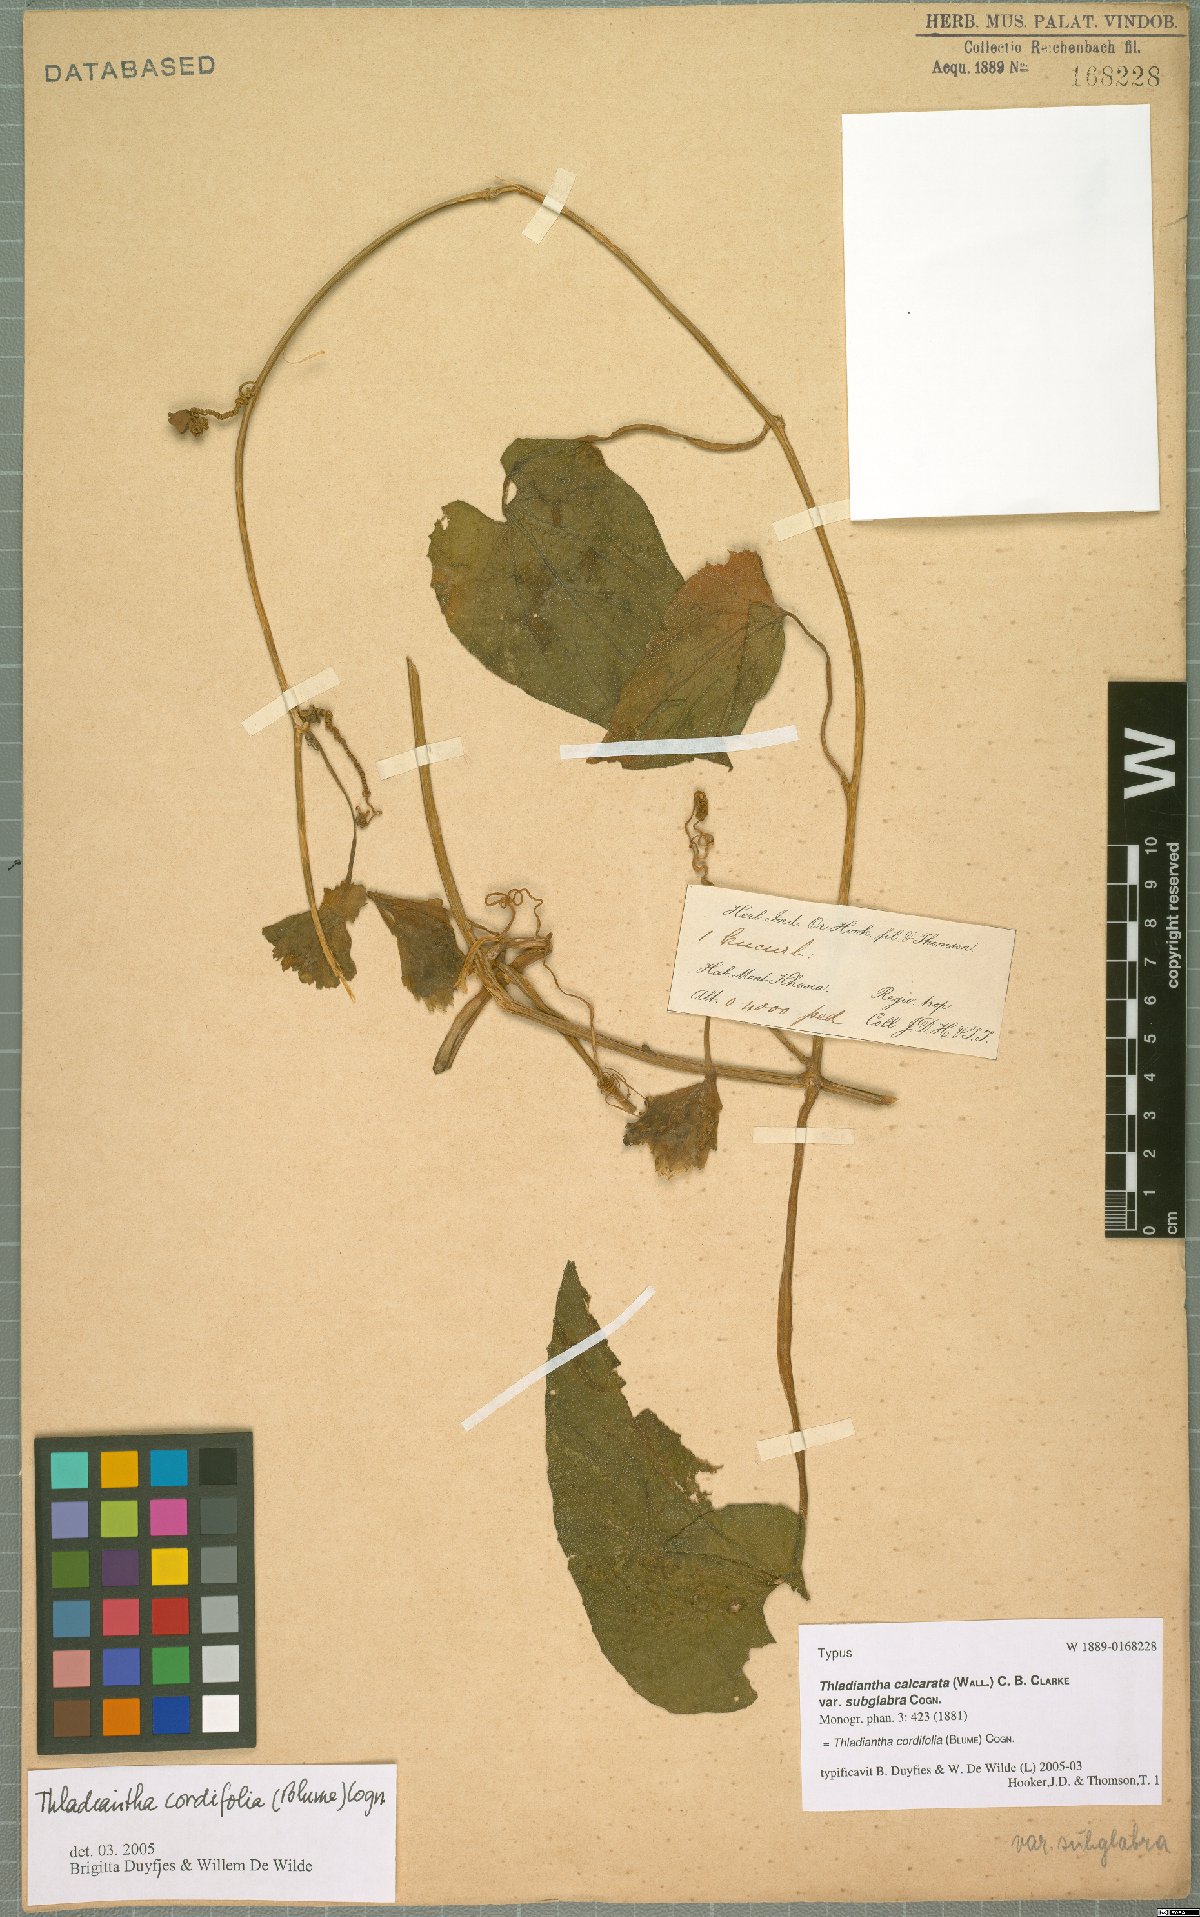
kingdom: Plantae
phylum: Tracheophyta
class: Magnoliopsida
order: Cucurbitales
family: Cucurbitaceae
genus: Thladiantha
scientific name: Thladiantha cordifolia
